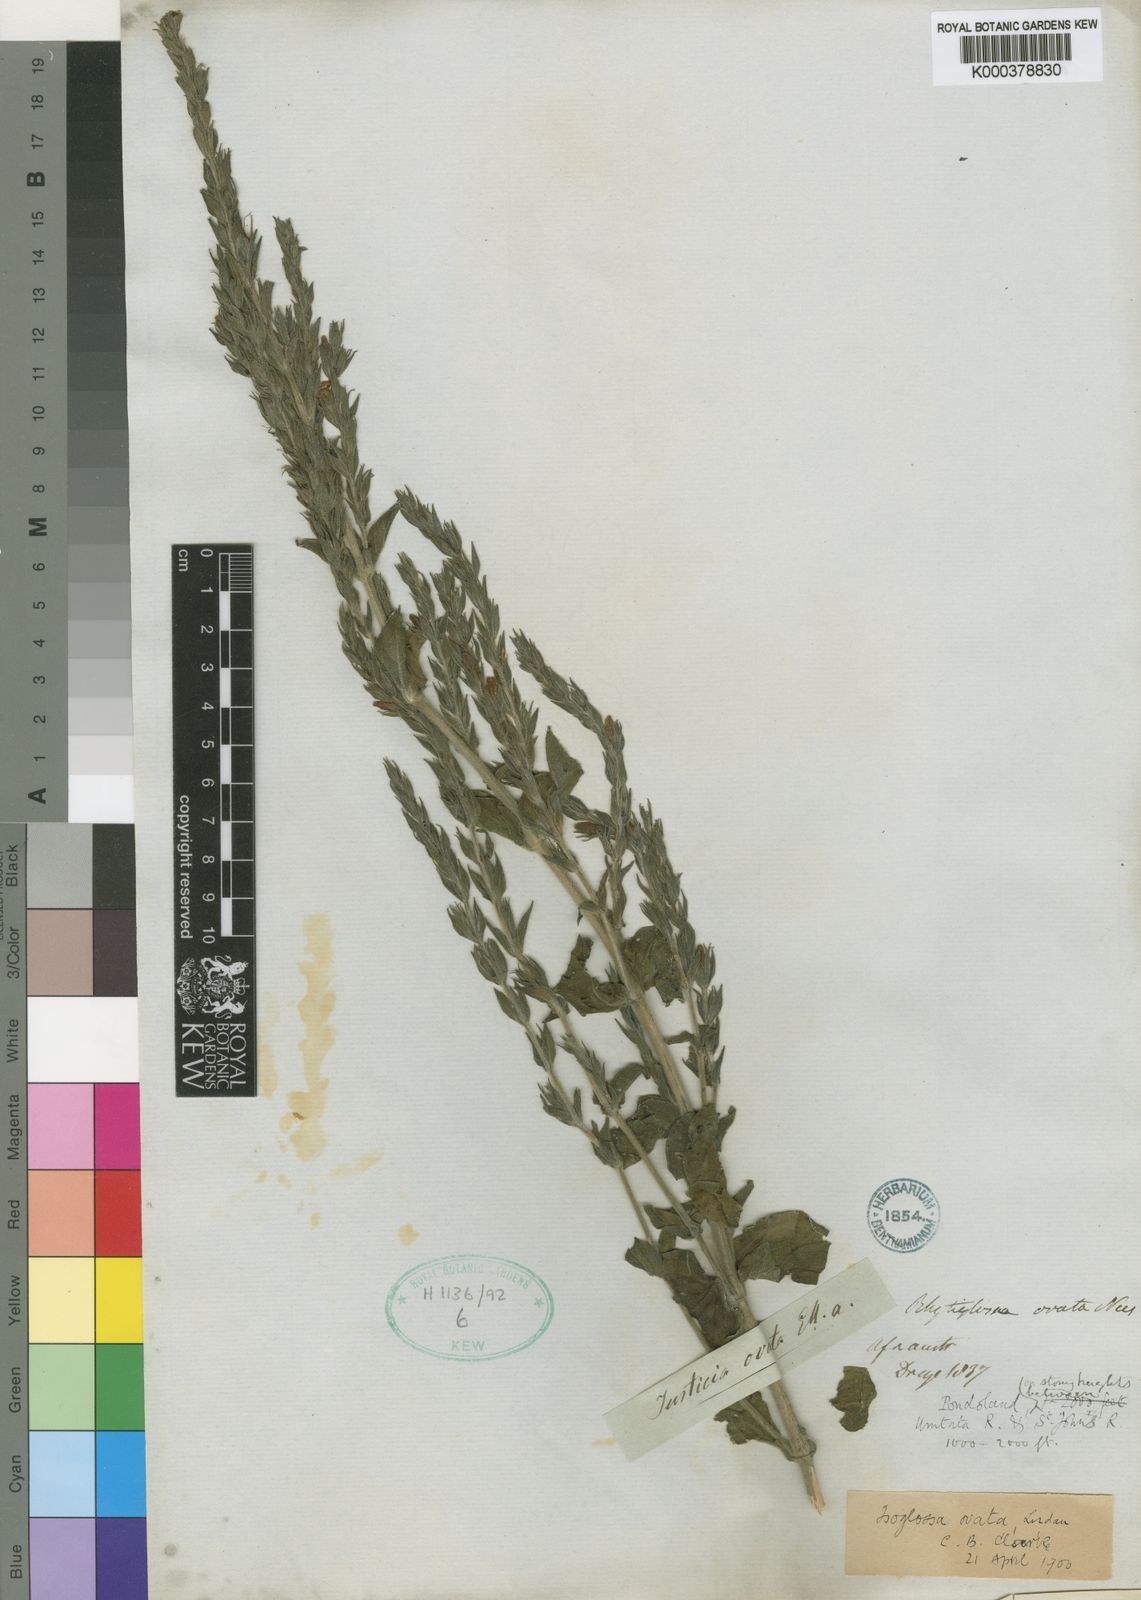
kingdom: Plantae
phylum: Tracheophyta
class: Magnoliopsida
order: Lamiales
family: Acanthaceae
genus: Isoglossa
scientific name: Isoglossa ovata
